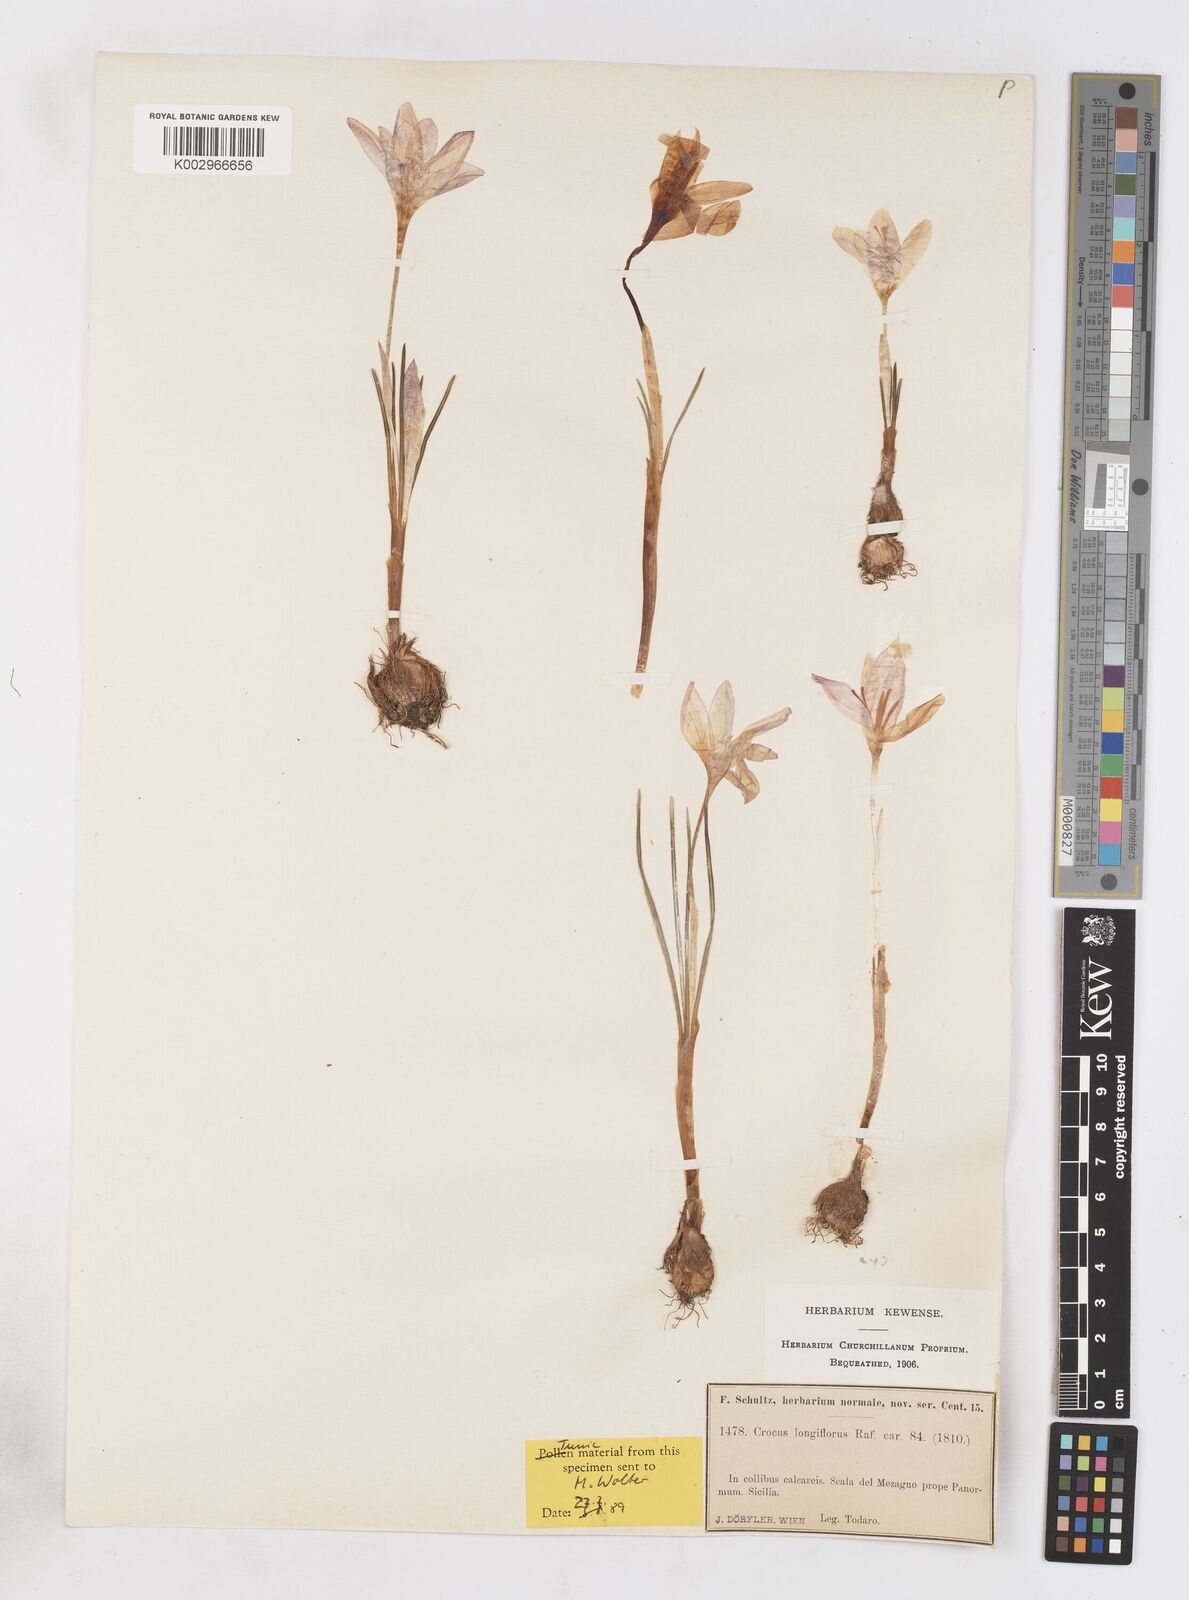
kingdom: Plantae
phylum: Tracheophyta
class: Liliopsida
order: Asparagales
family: Iridaceae
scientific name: Iridaceae
